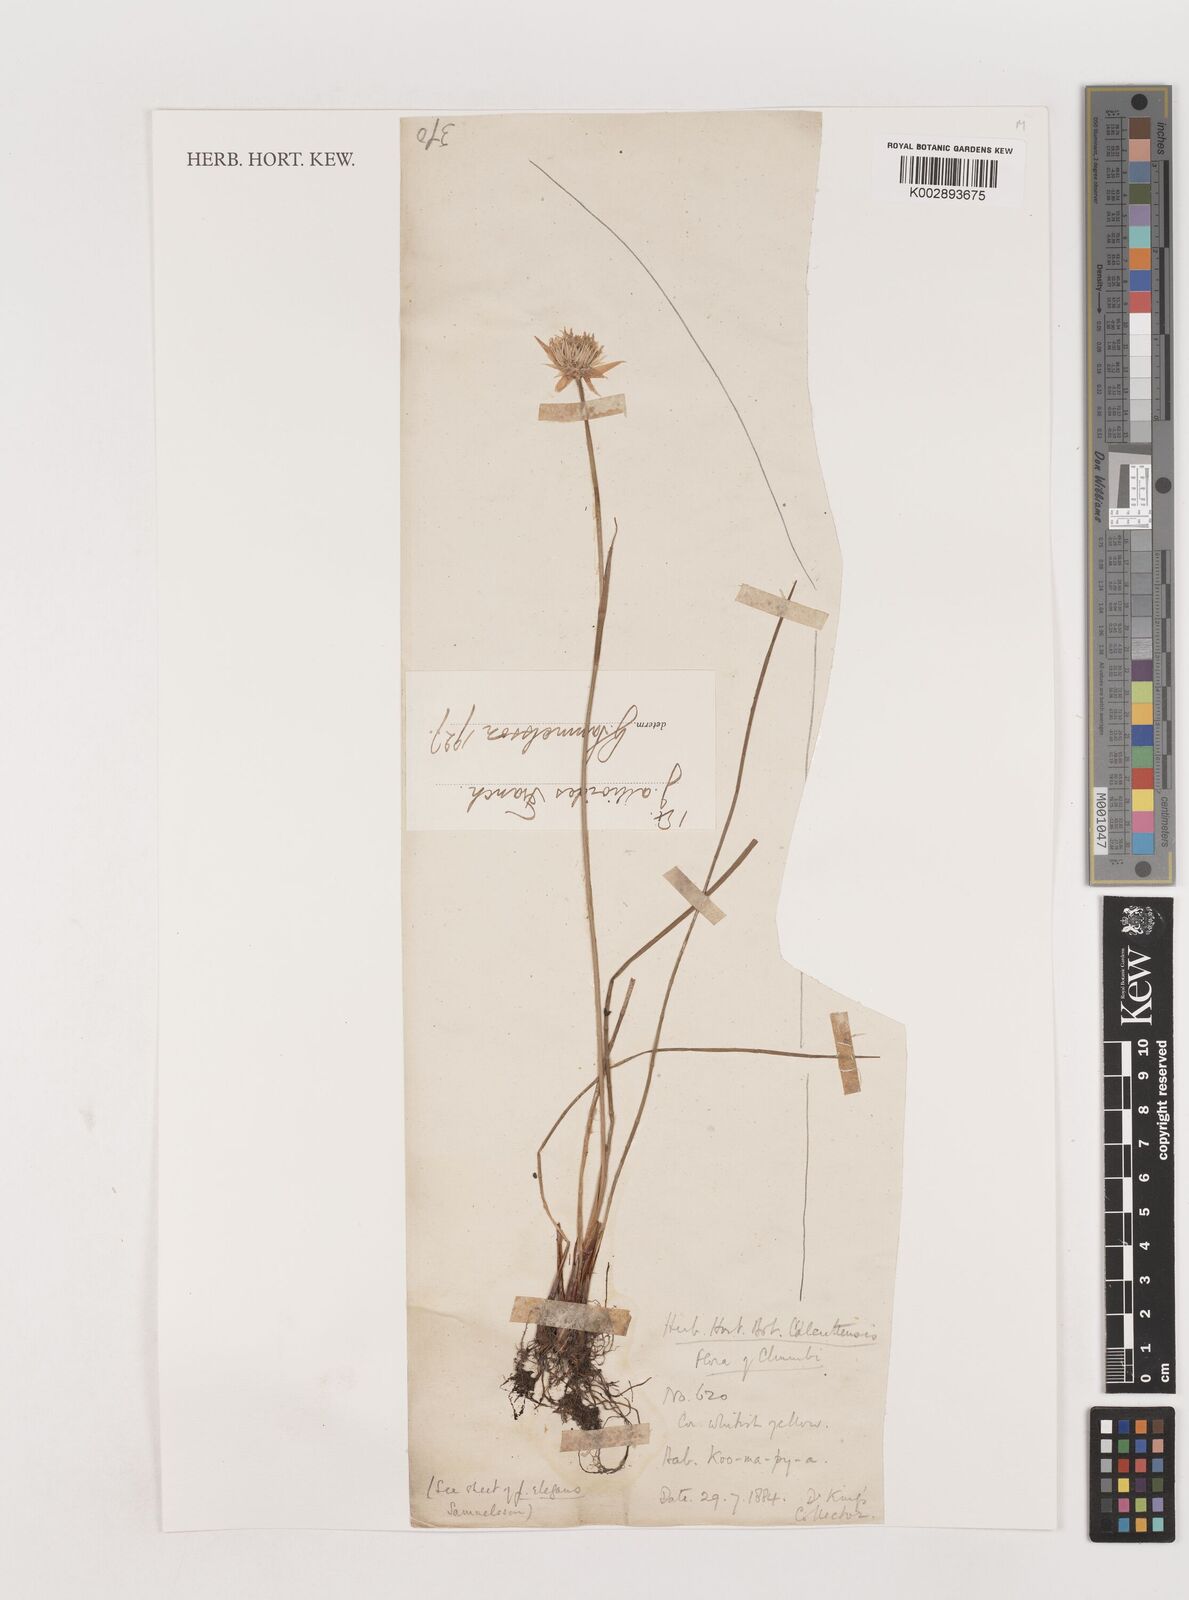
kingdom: Plantae
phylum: Tracheophyta
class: Liliopsida
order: Poales
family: Juncaceae
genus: Juncus
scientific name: Juncus allioides
